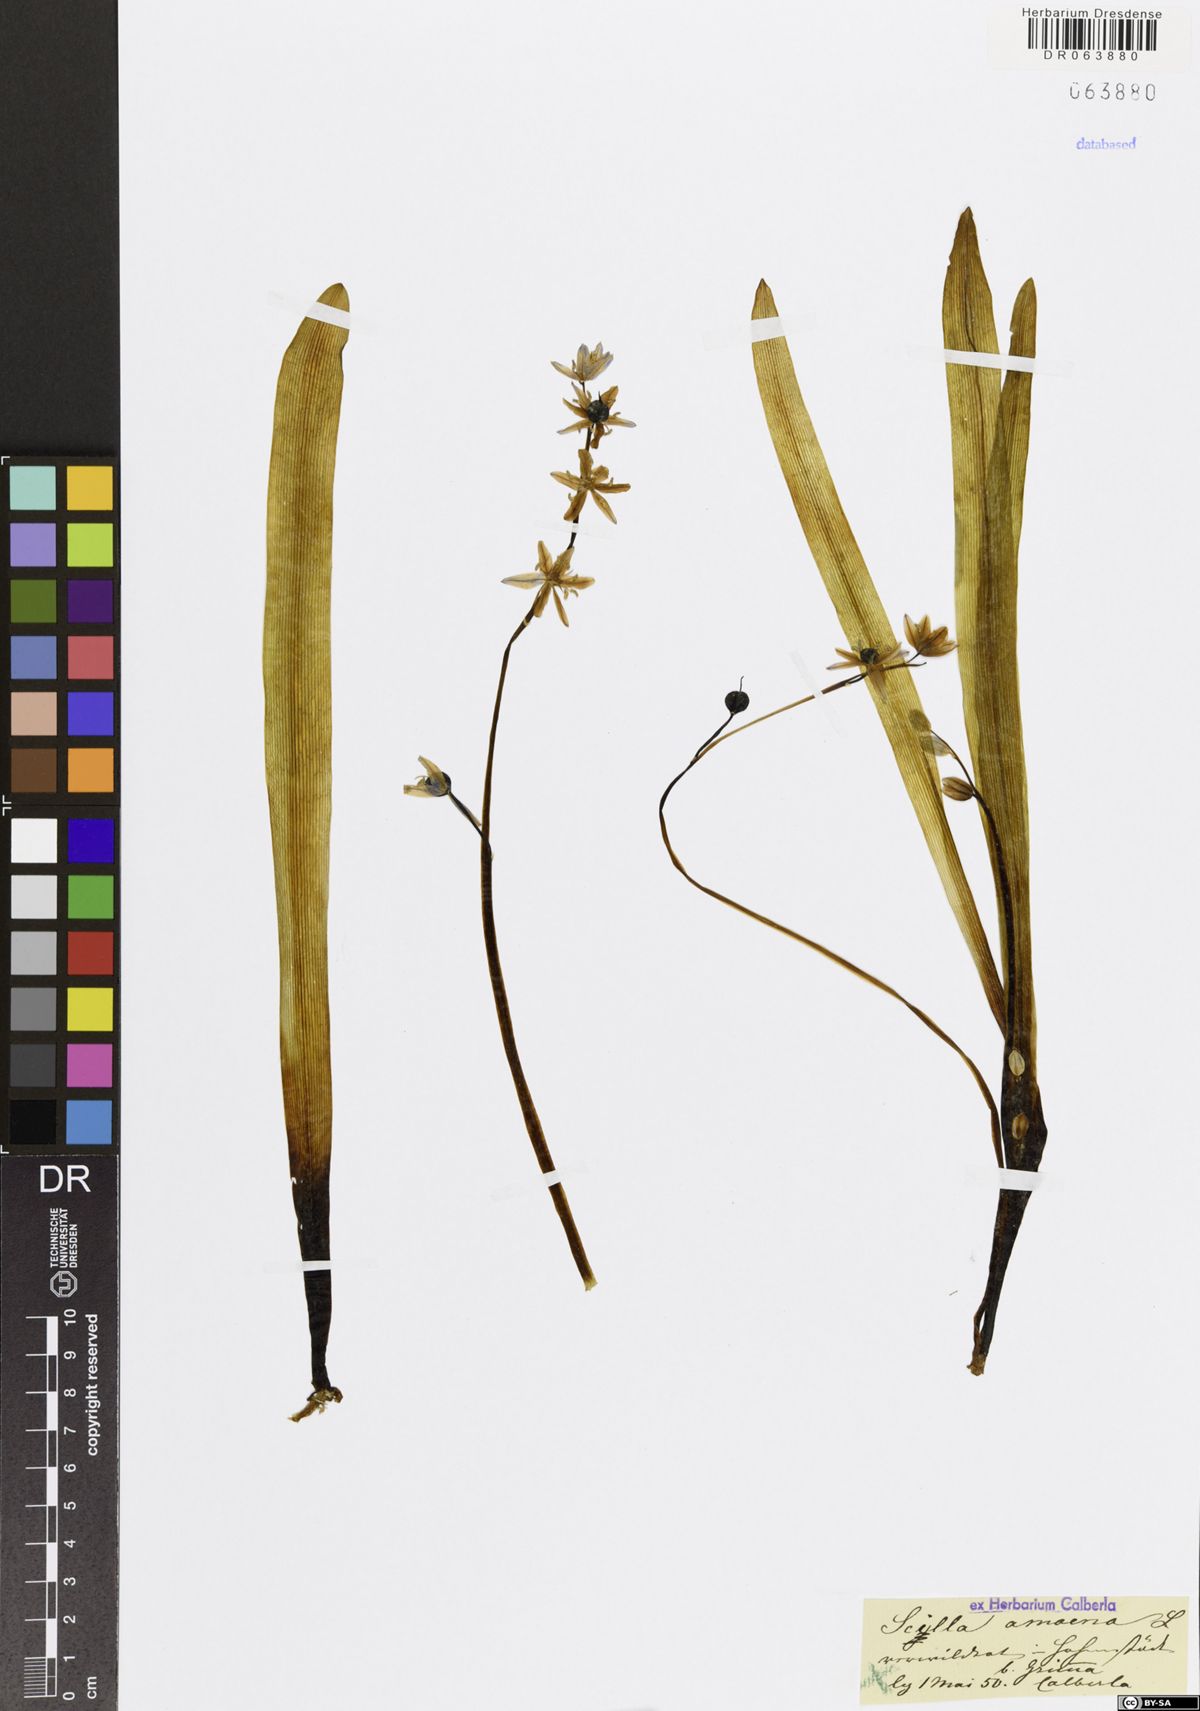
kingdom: Plantae
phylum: Tracheophyta
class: Liliopsida
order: Asparagales
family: Asparagaceae
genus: Scilla
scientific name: Scilla amoena
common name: Star-hyacinth
